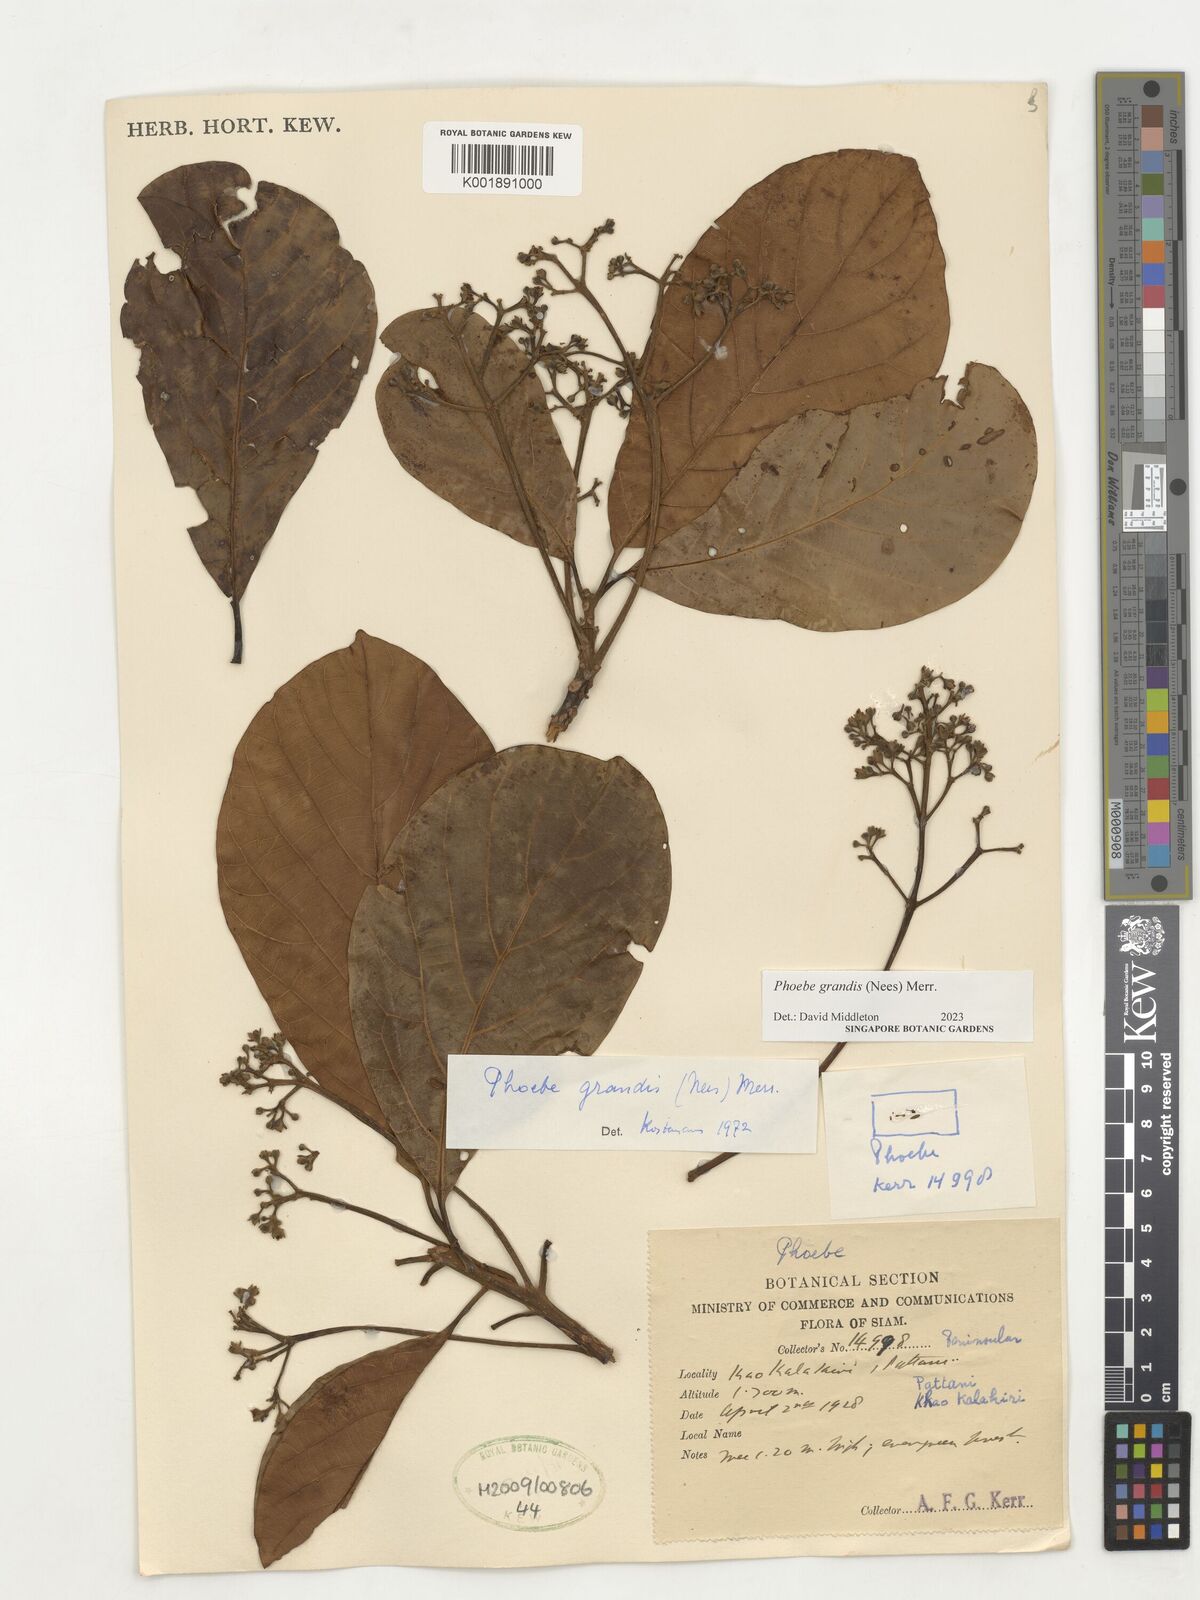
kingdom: Plantae
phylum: Tracheophyta
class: Magnoliopsida
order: Laurales
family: Lauraceae
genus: Phoebe
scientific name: Phoebe grandis
